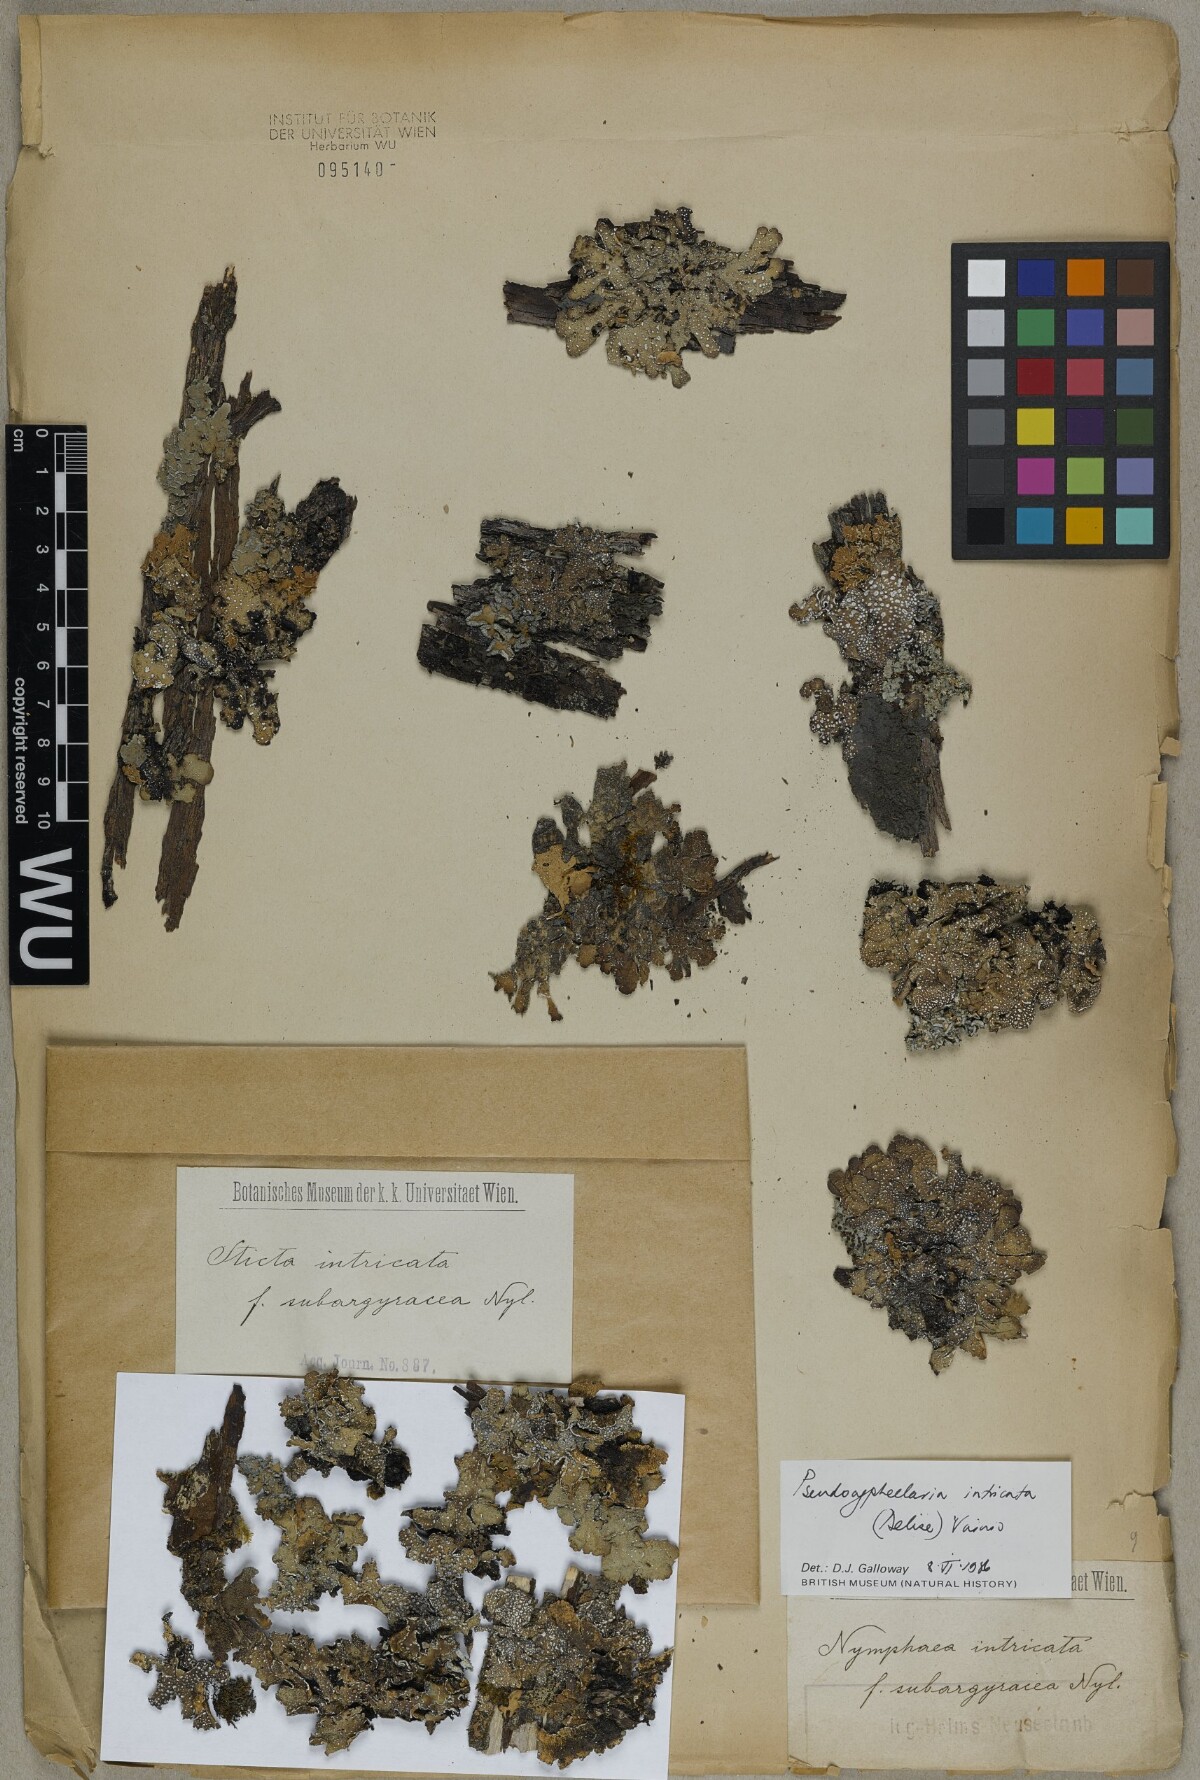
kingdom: Fungi
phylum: Ascomycota
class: Lecanoromycetes
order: Peltigerales
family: Lobariaceae
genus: Pseudocyphellaria
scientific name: Pseudocyphellaria intricata
